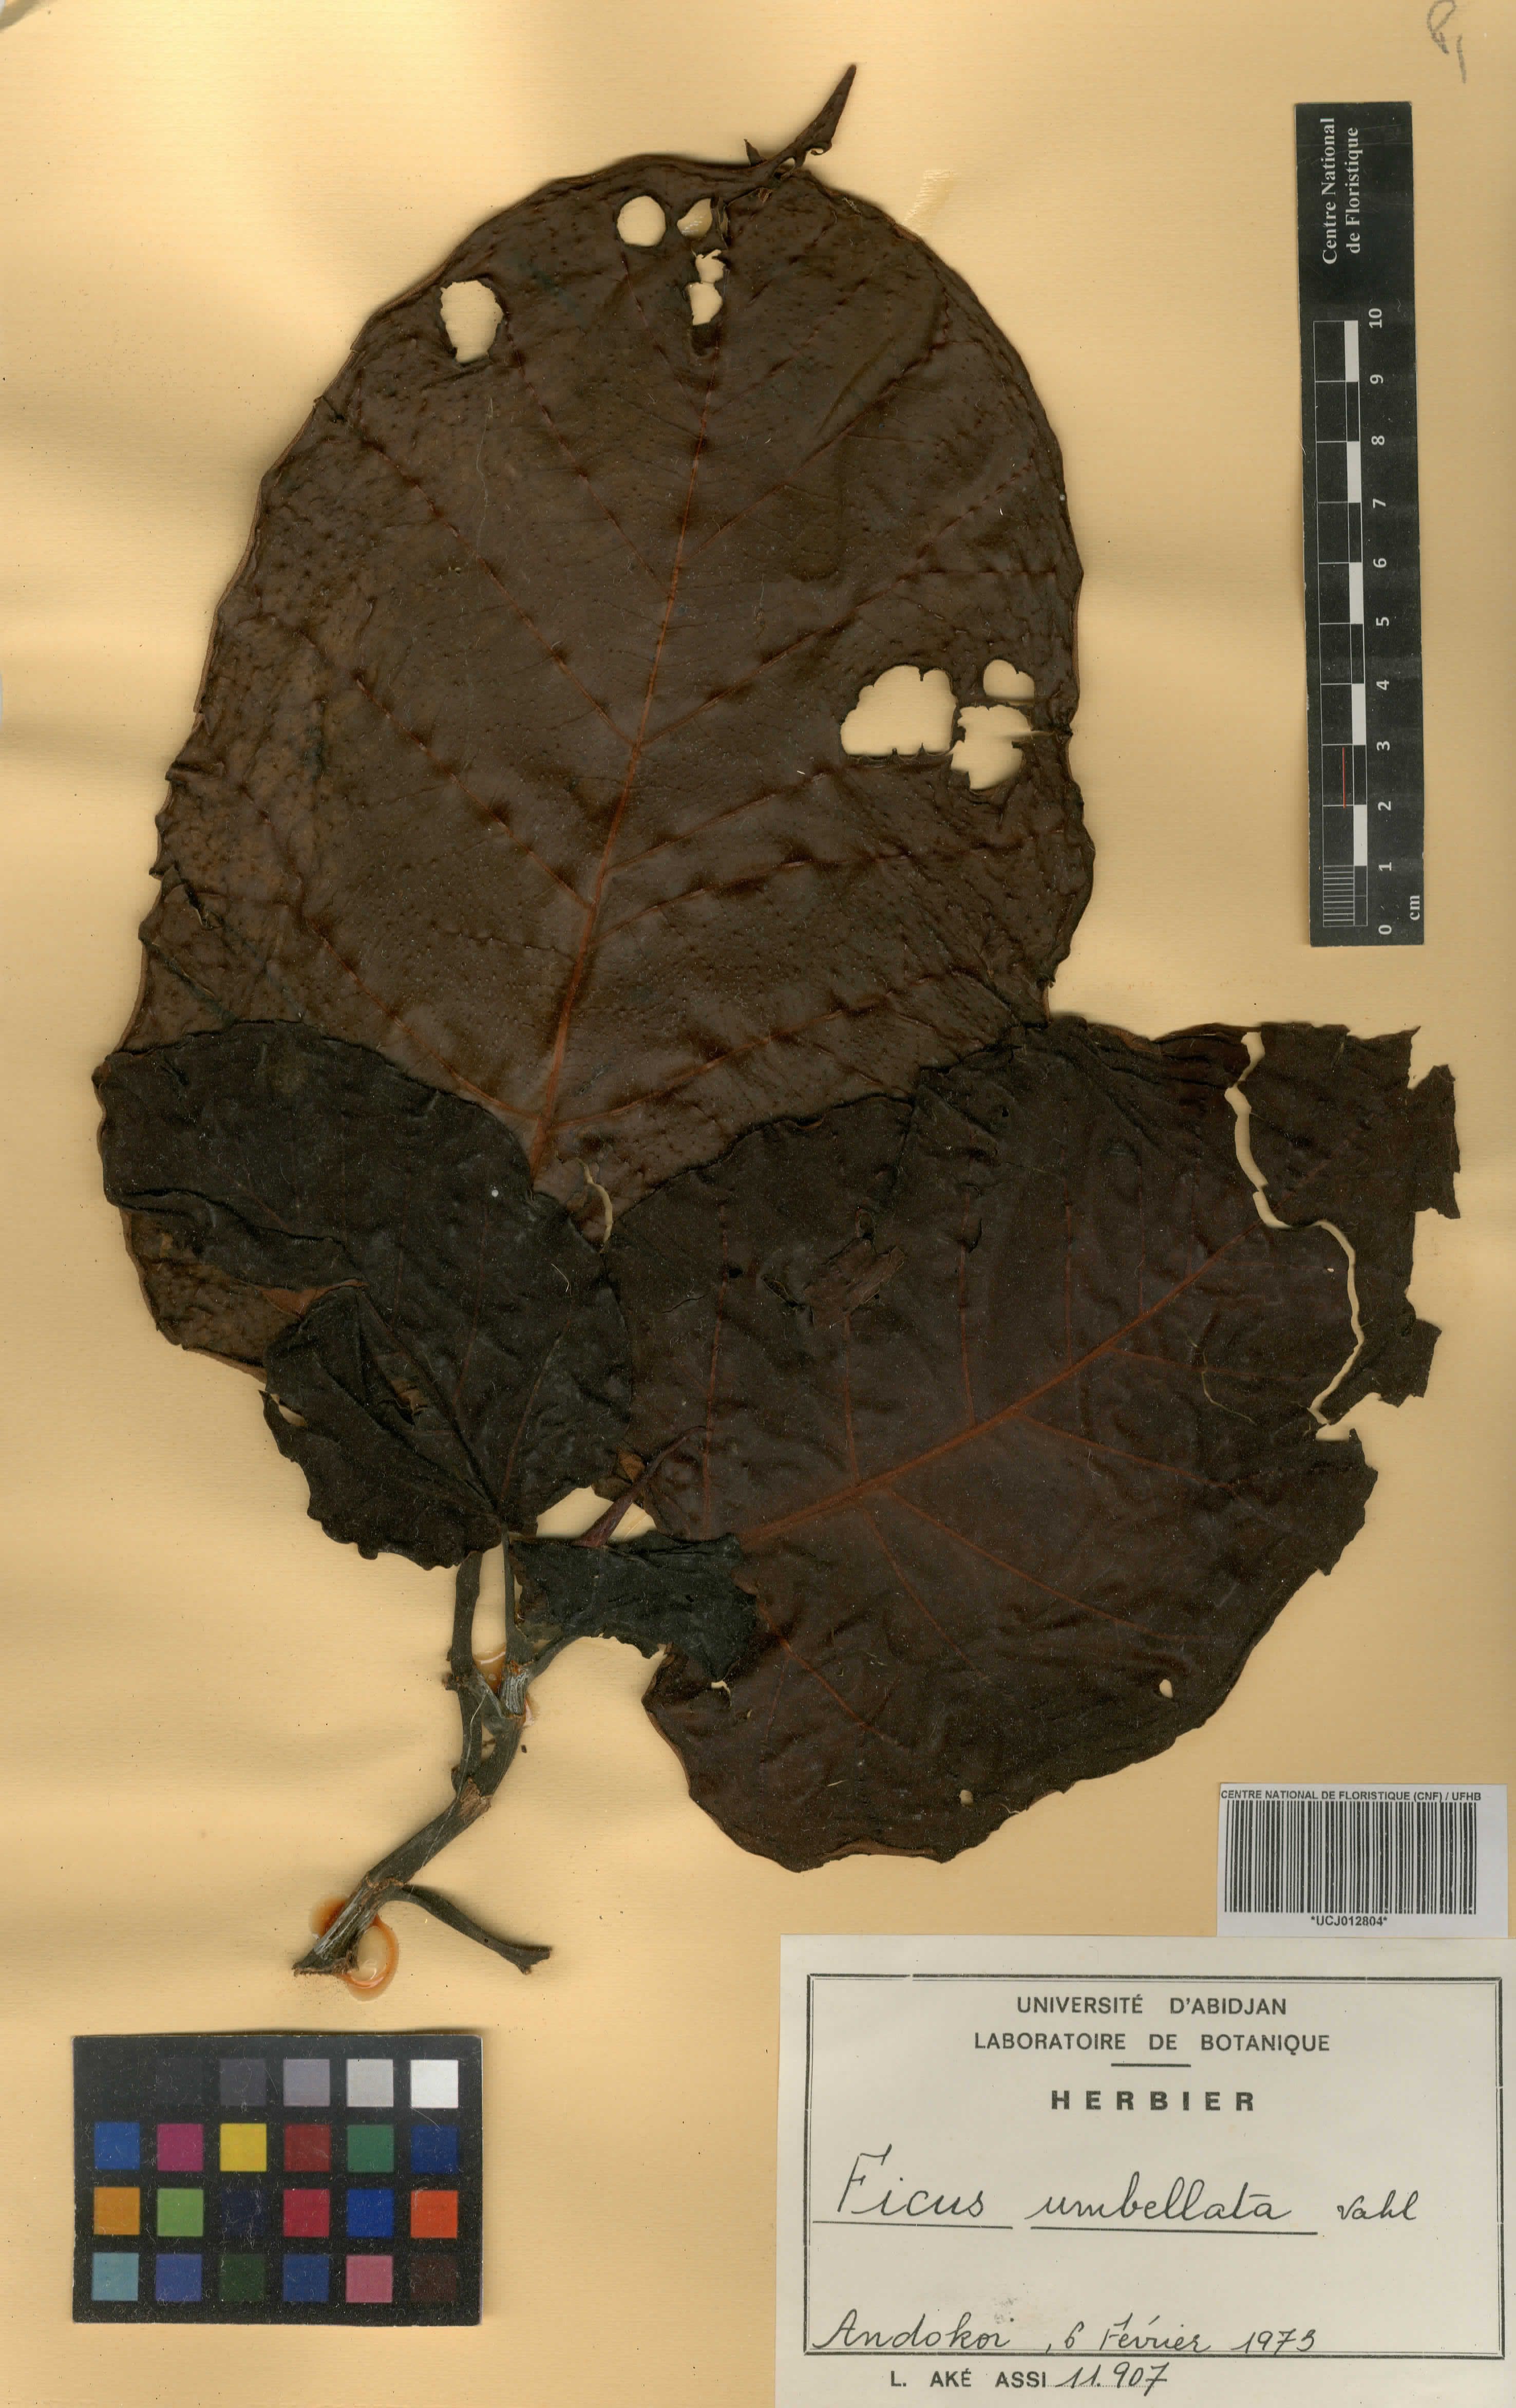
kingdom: Plantae
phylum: Tracheophyta
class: Magnoliopsida
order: Rosales
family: Moraceae
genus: Ficus
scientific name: Ficus umbellata
